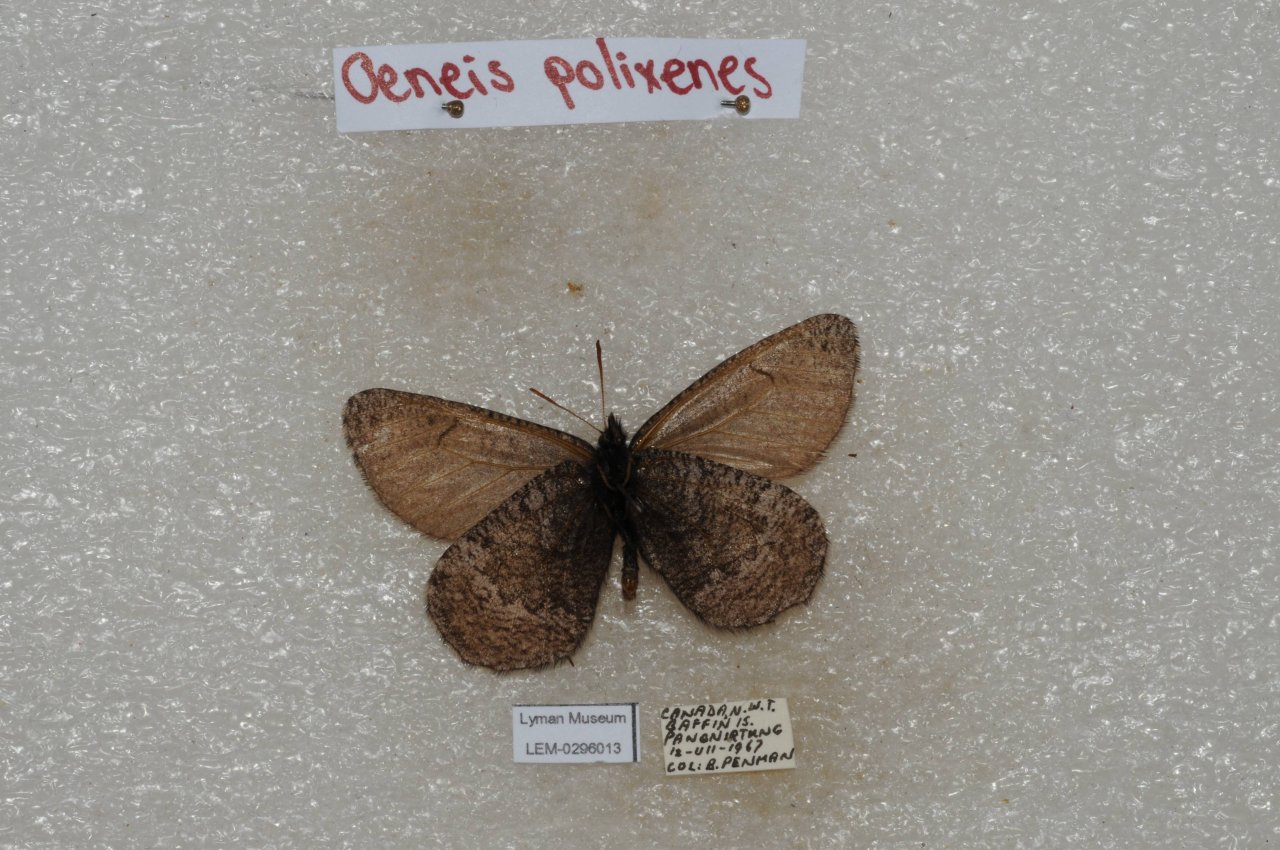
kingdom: Animalia
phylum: Arthropoda
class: Insecta
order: Lepidoptera
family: Nymphalidae
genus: Oeneis
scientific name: Oeneis bore
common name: Polixenes Arctic
